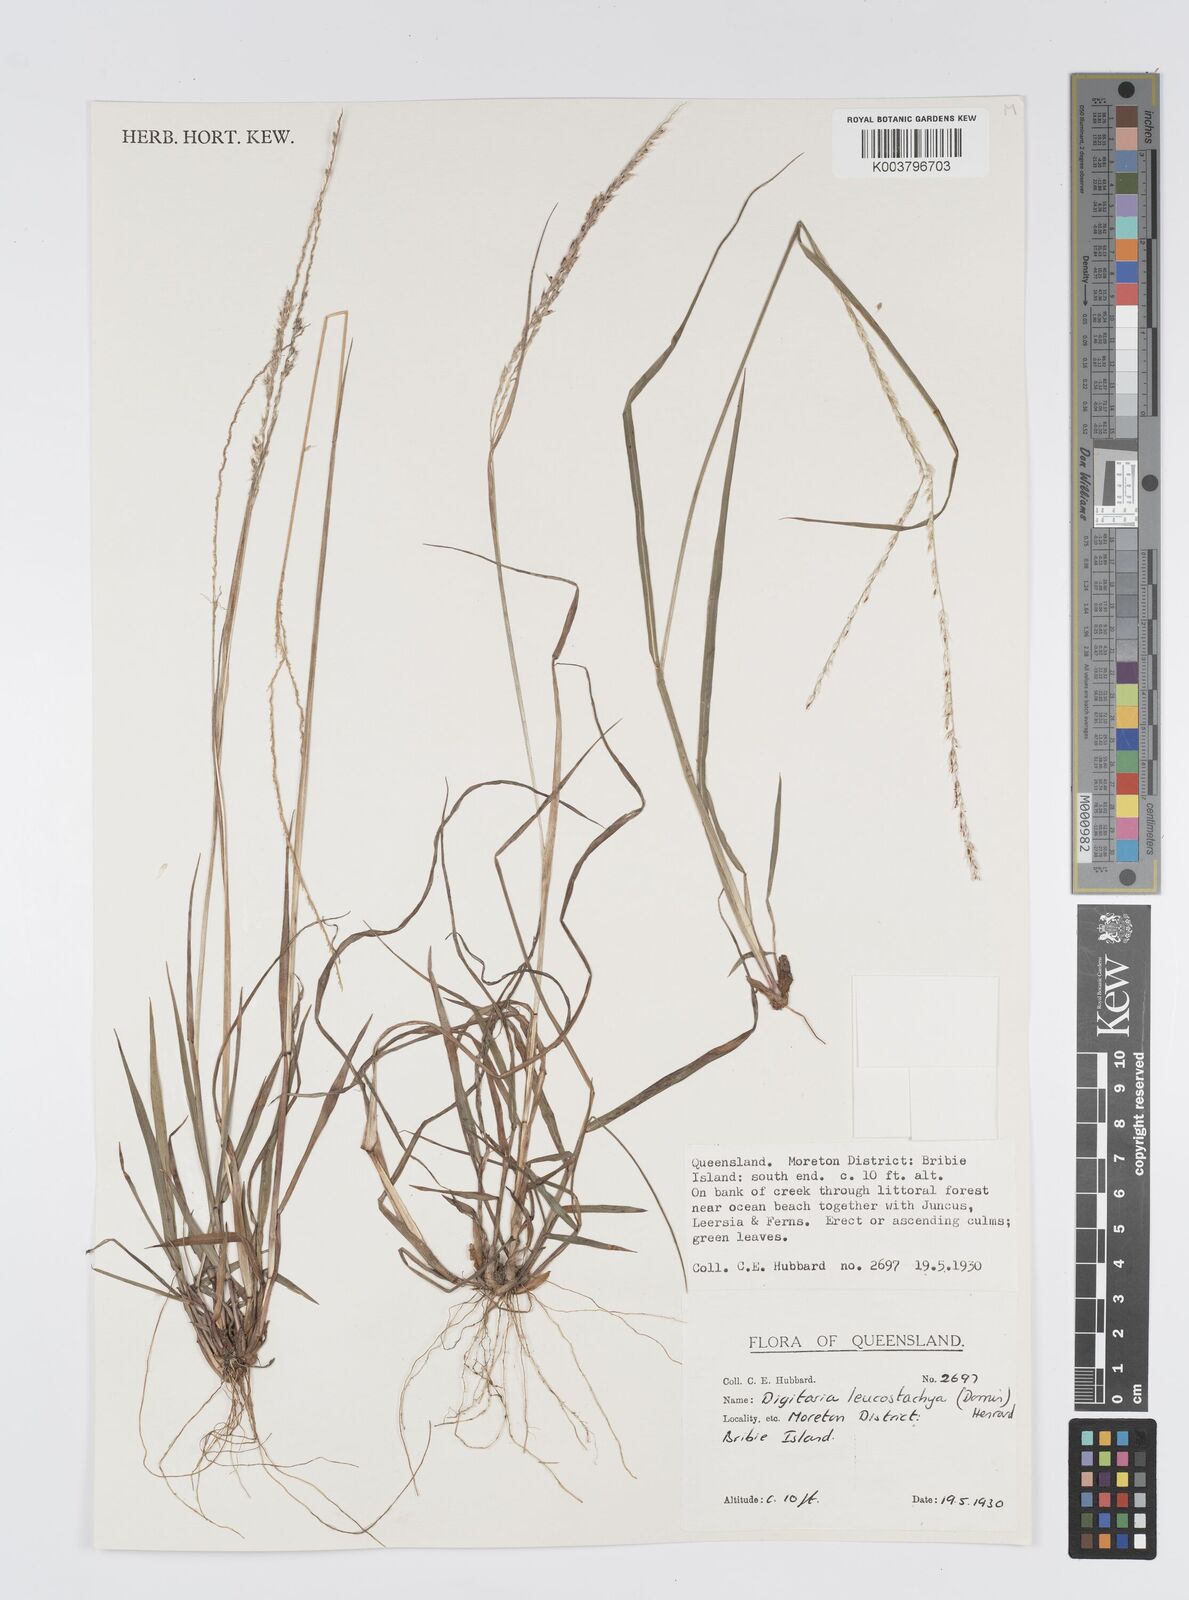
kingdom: Plantae
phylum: Tracheophyta
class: Liliopsida
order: Poales
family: Poaceae
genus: Digitaria
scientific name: Digitaria leucostachya
